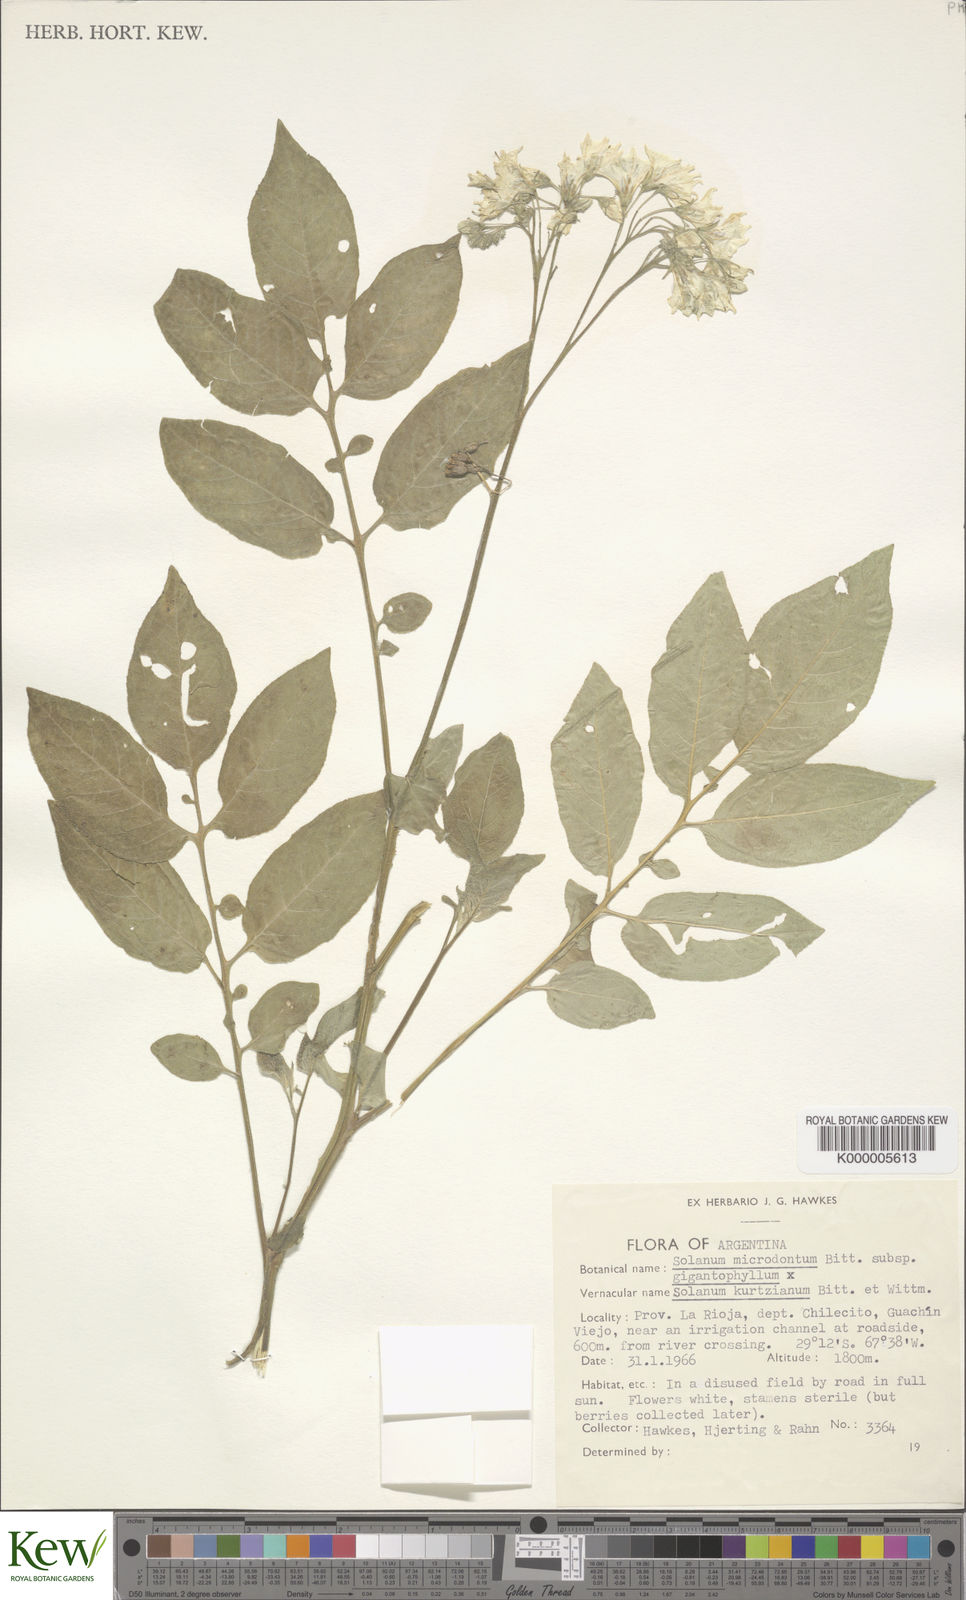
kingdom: Plantae
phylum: Tracheophyta
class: Magnoliopsida
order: Solanales
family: Solanaceae
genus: Solanum
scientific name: Solanum microdontum
